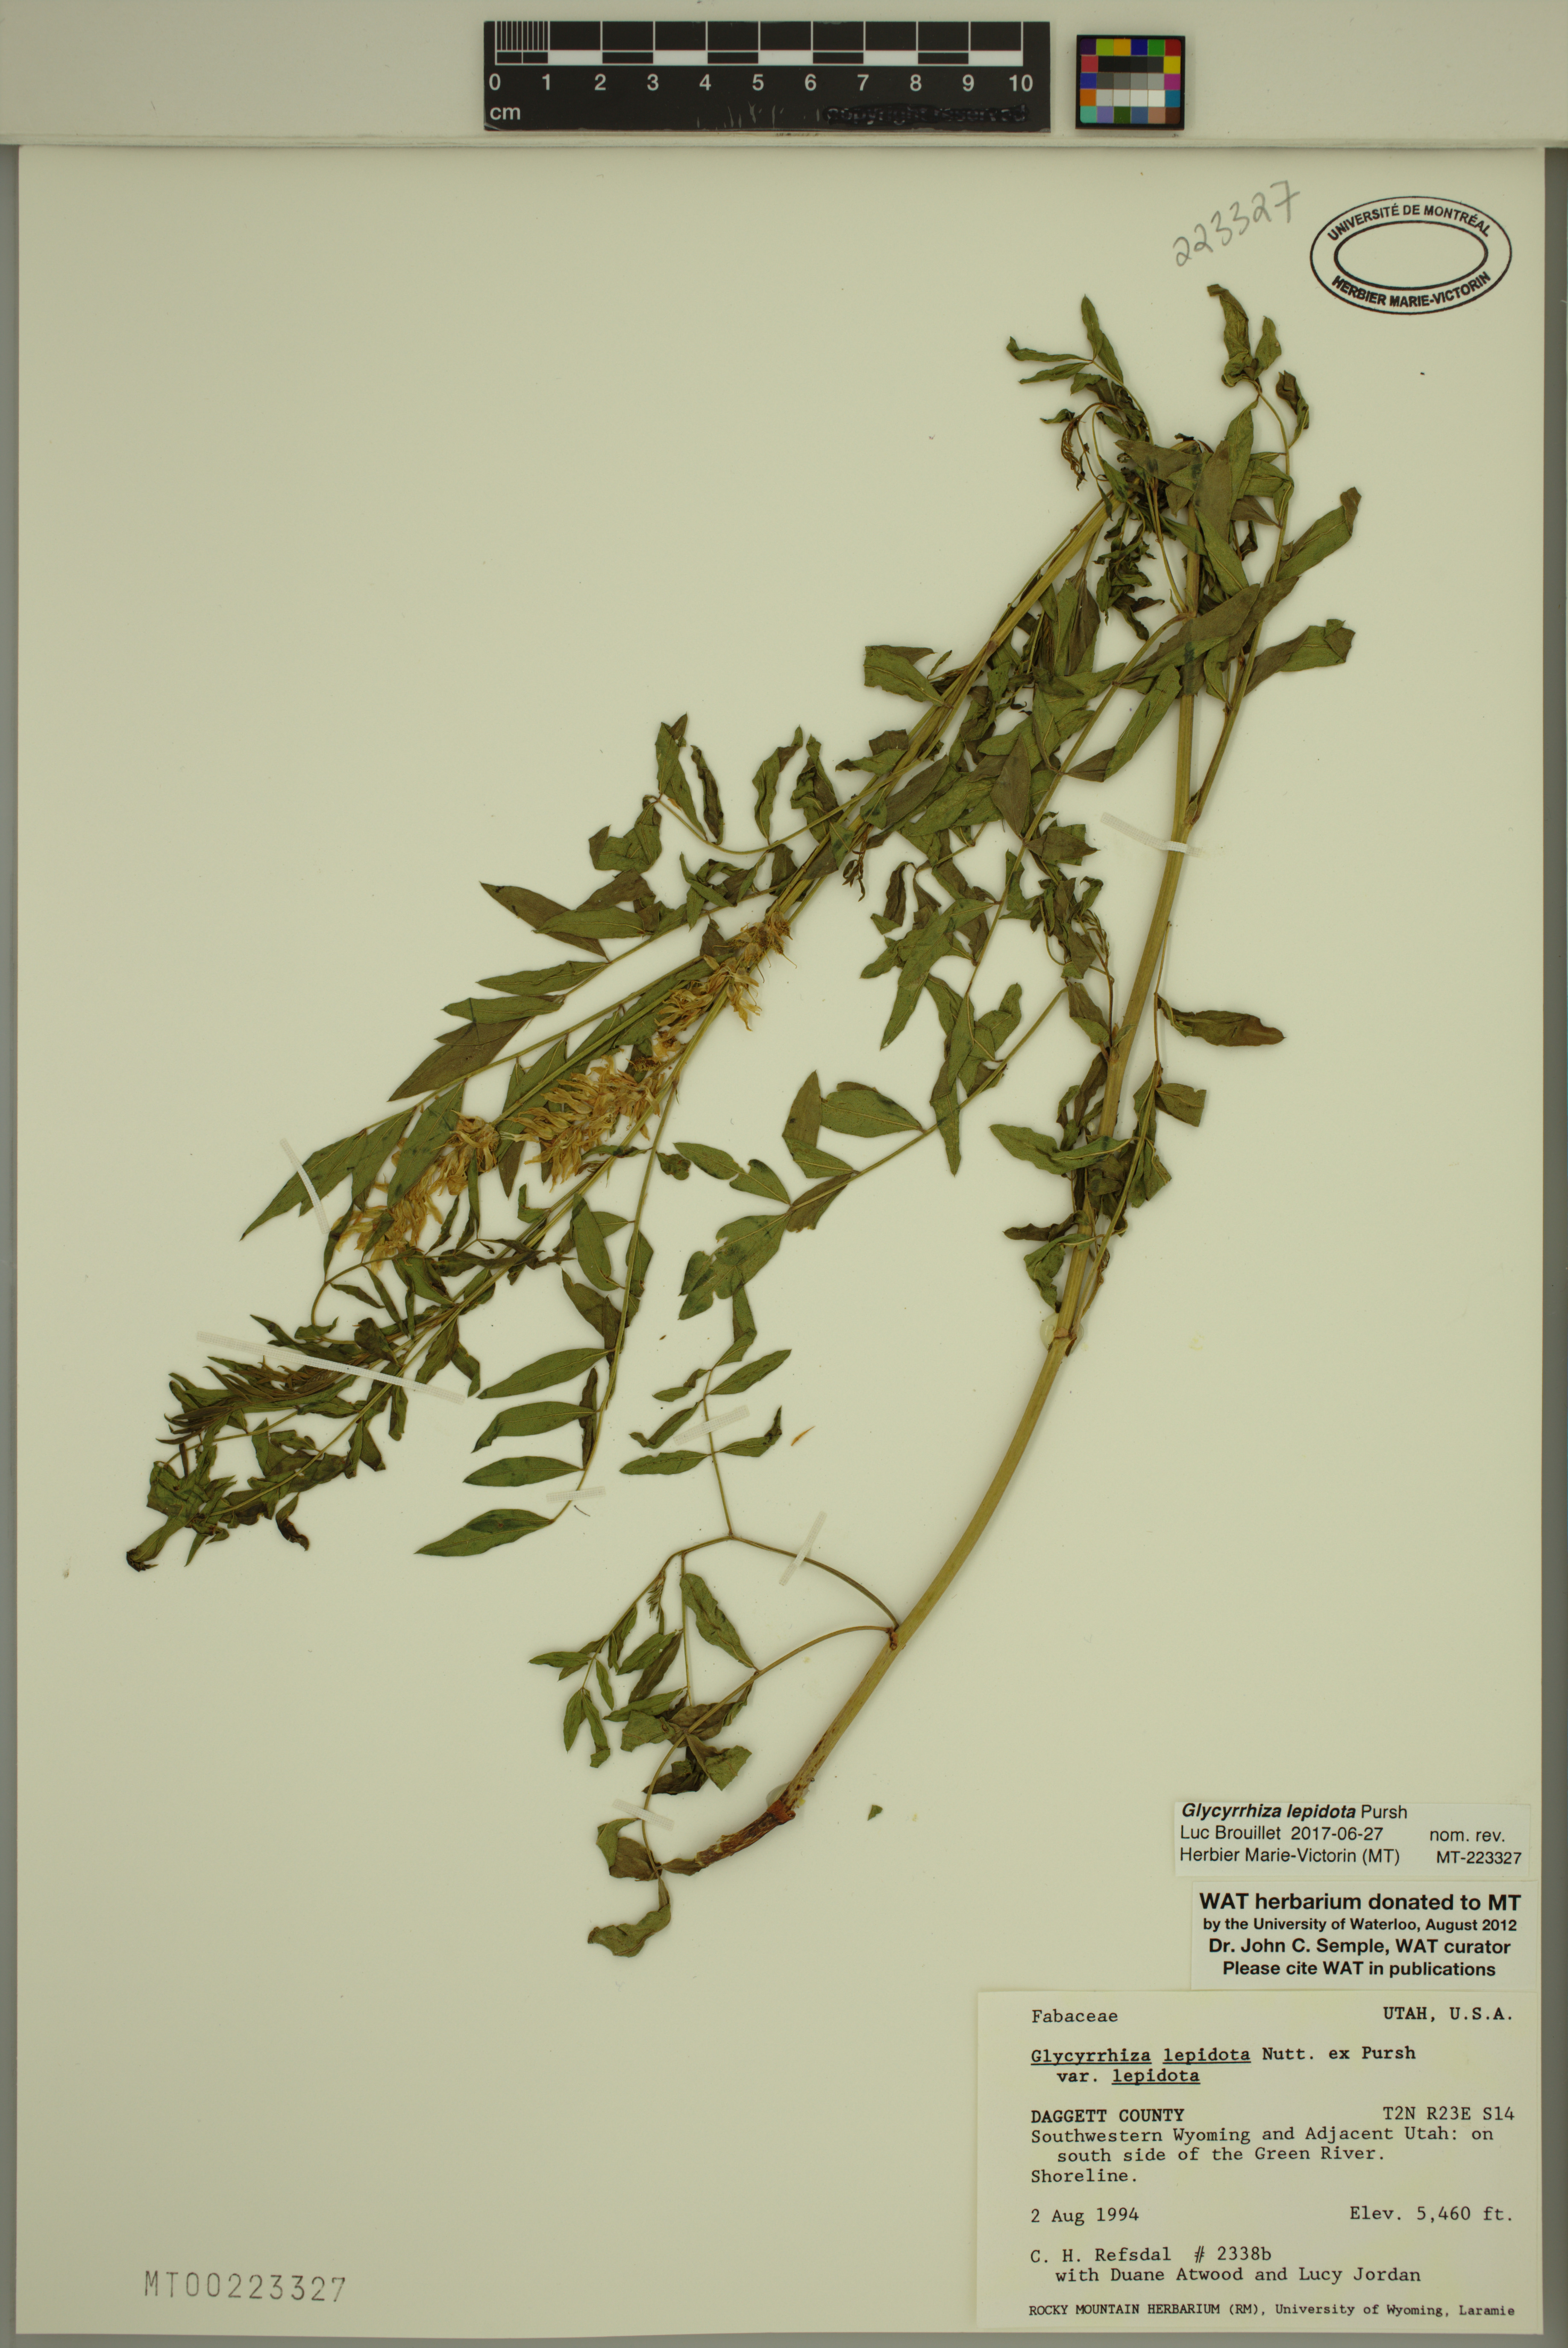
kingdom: Plantae
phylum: Tracheophyta
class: Magnoliopsida
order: Fabales
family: Fabaceae
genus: Glycyrrhiza
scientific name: Glycyrrhiza lepidota
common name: American liquorice
